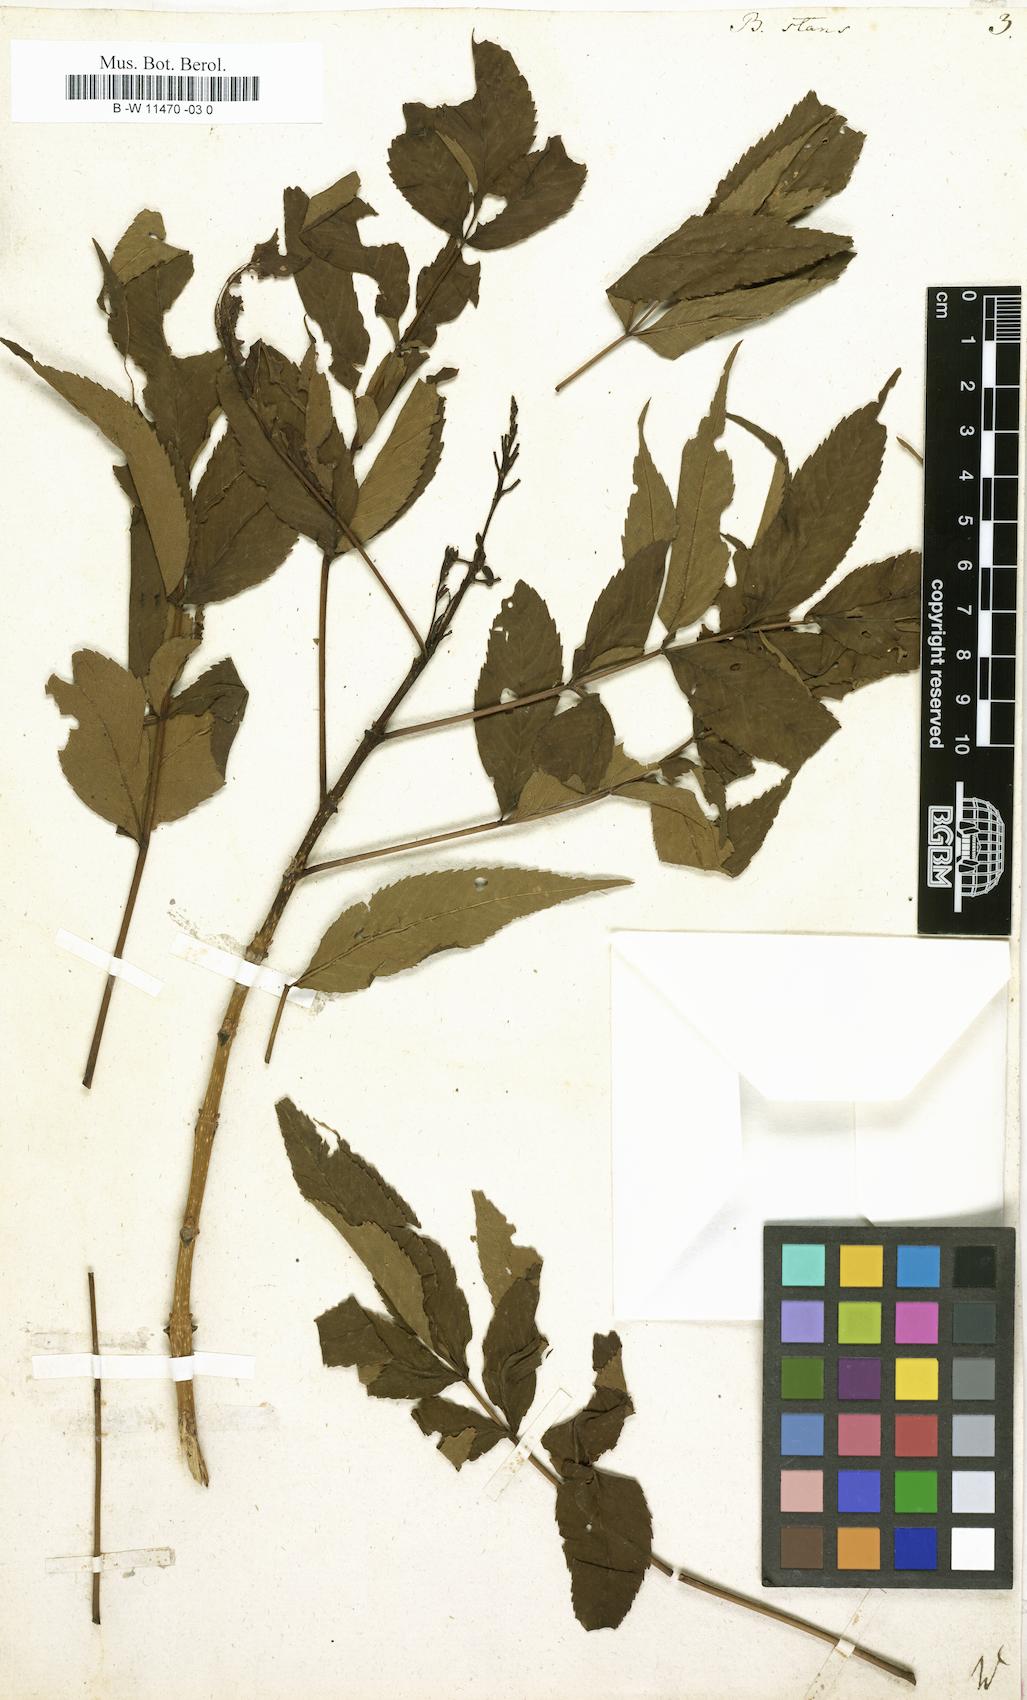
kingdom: Plantae
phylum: Tracheophyta
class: Magnoliopsida
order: Lamiales
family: Bignoniaceae
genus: Tecoma
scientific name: Tecoma stans
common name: Yellow trumpetbush
